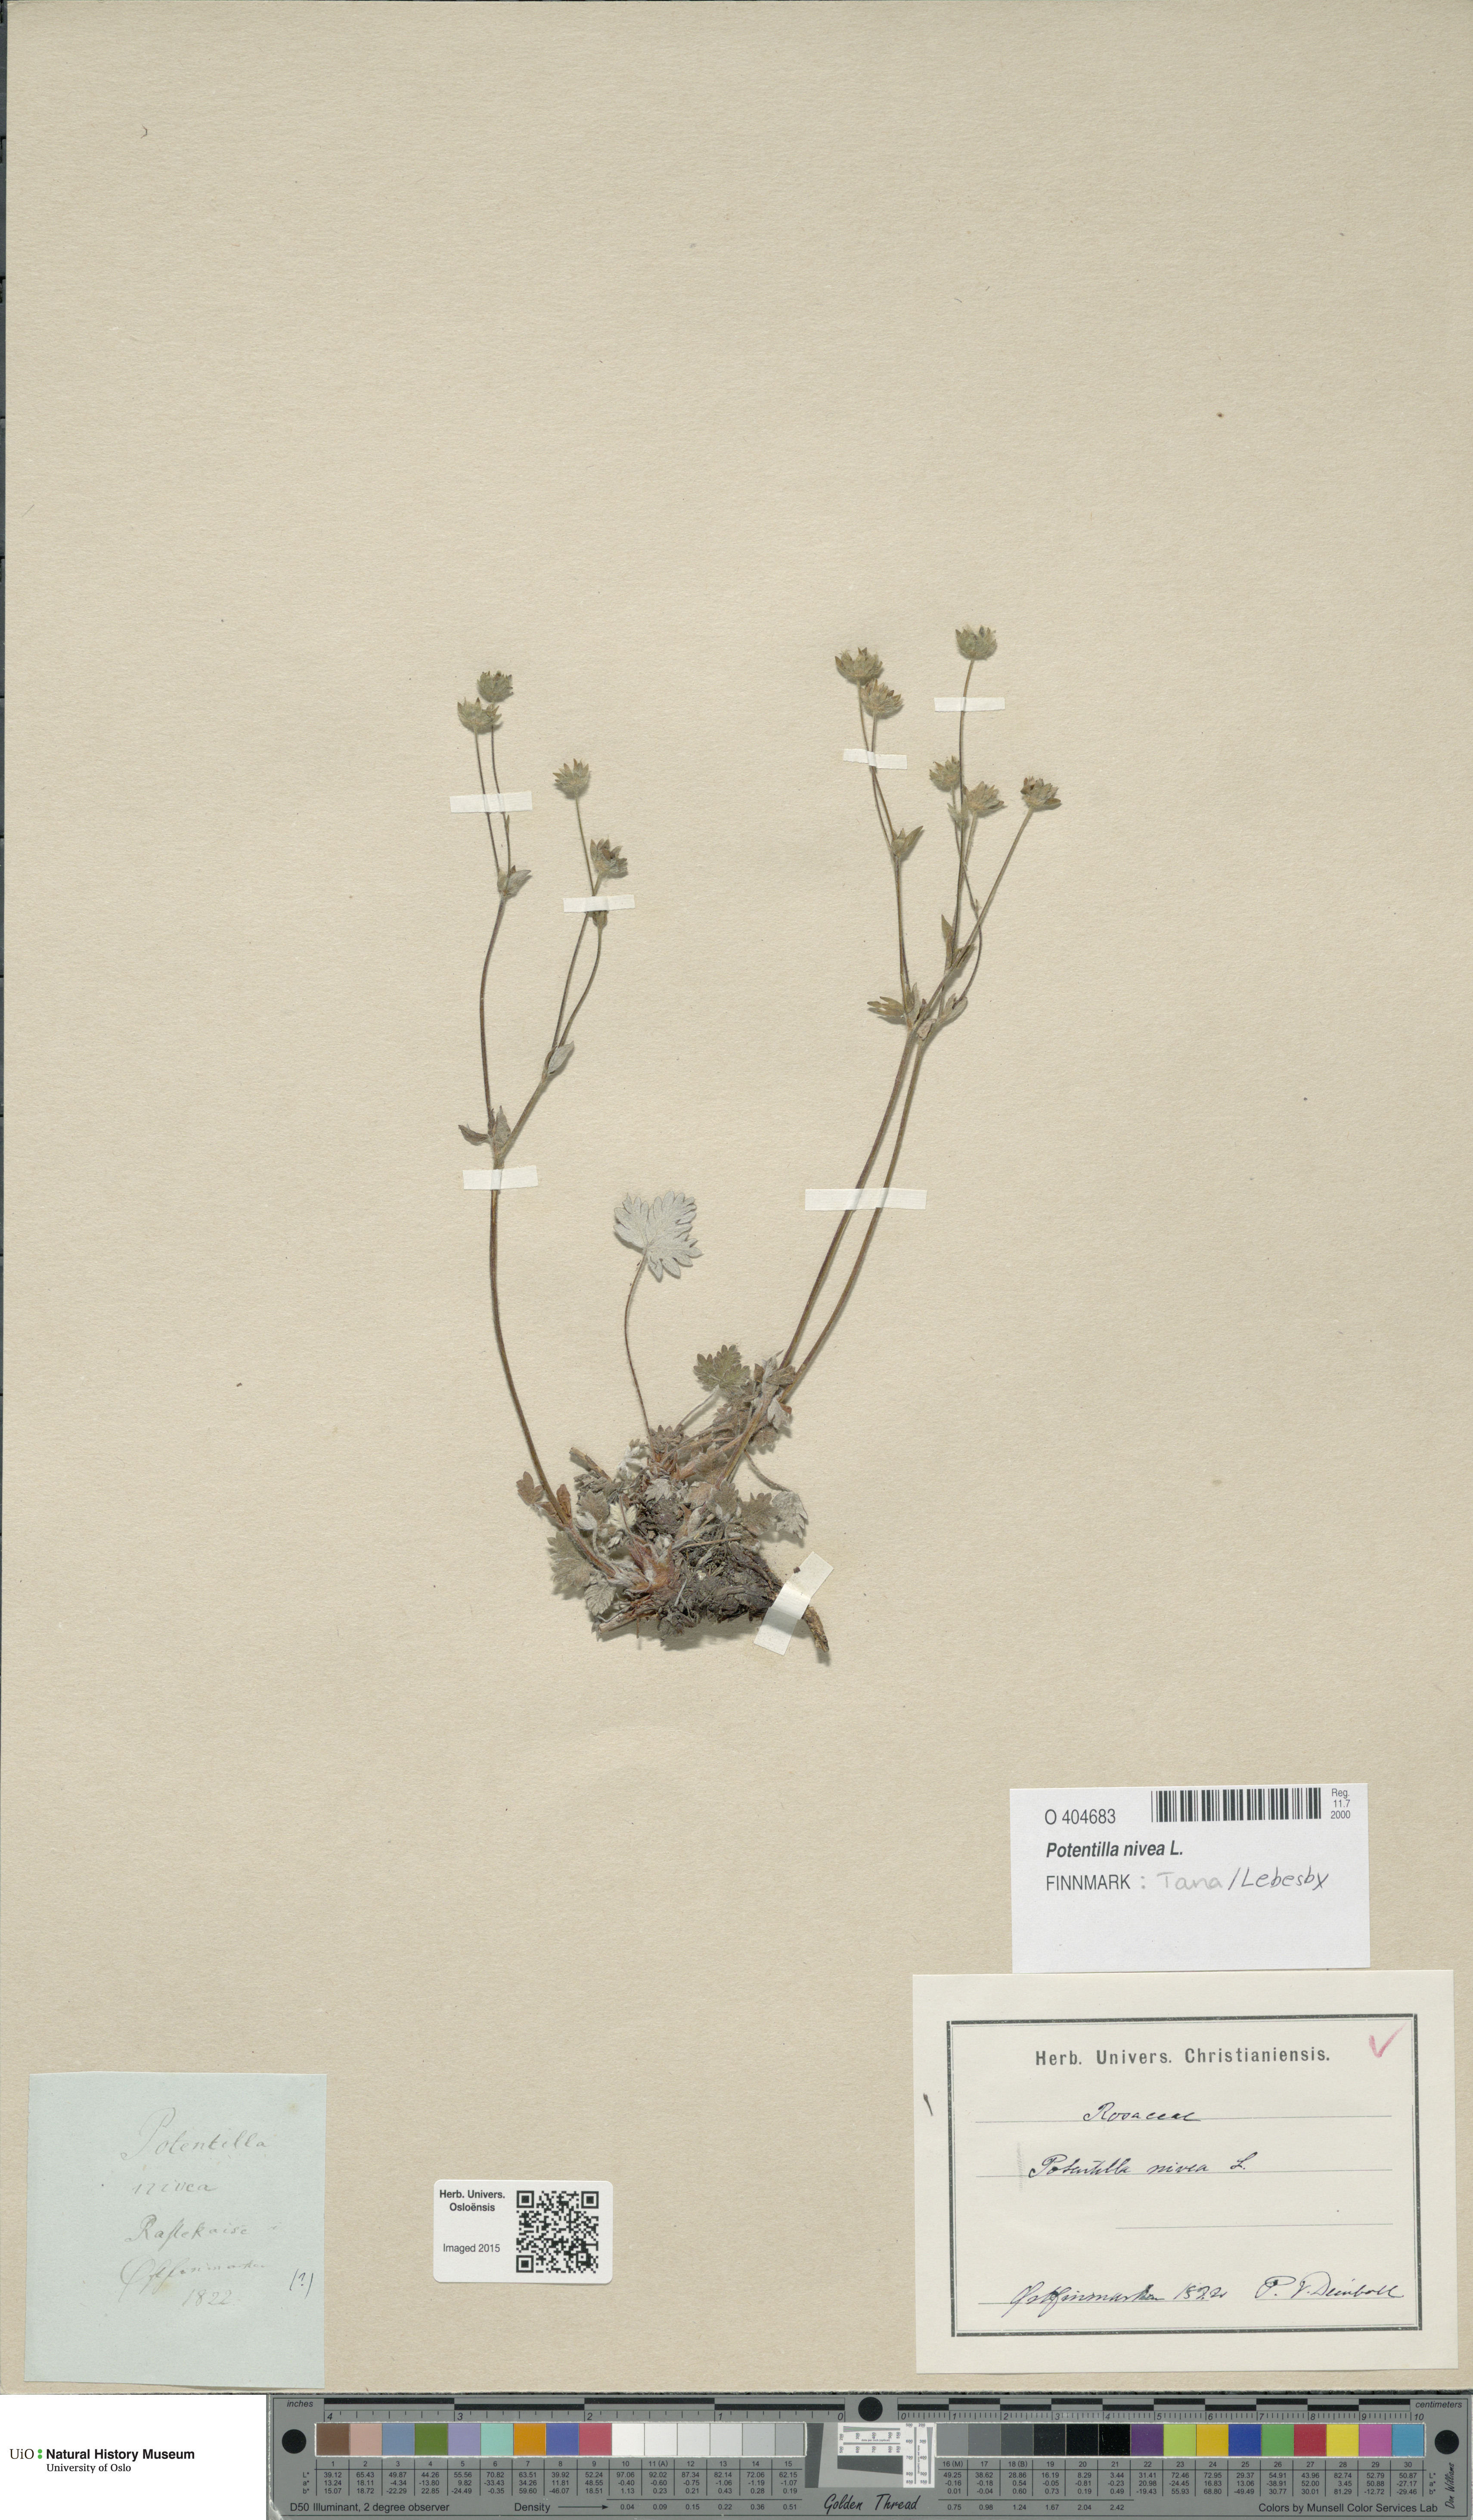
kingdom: Plantae
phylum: Tracheophyta
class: Magnoliopsida
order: Rosales
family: Rosaceae
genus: Potentilla
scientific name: Potentilla arenosa
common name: Bluff cinquefoil
